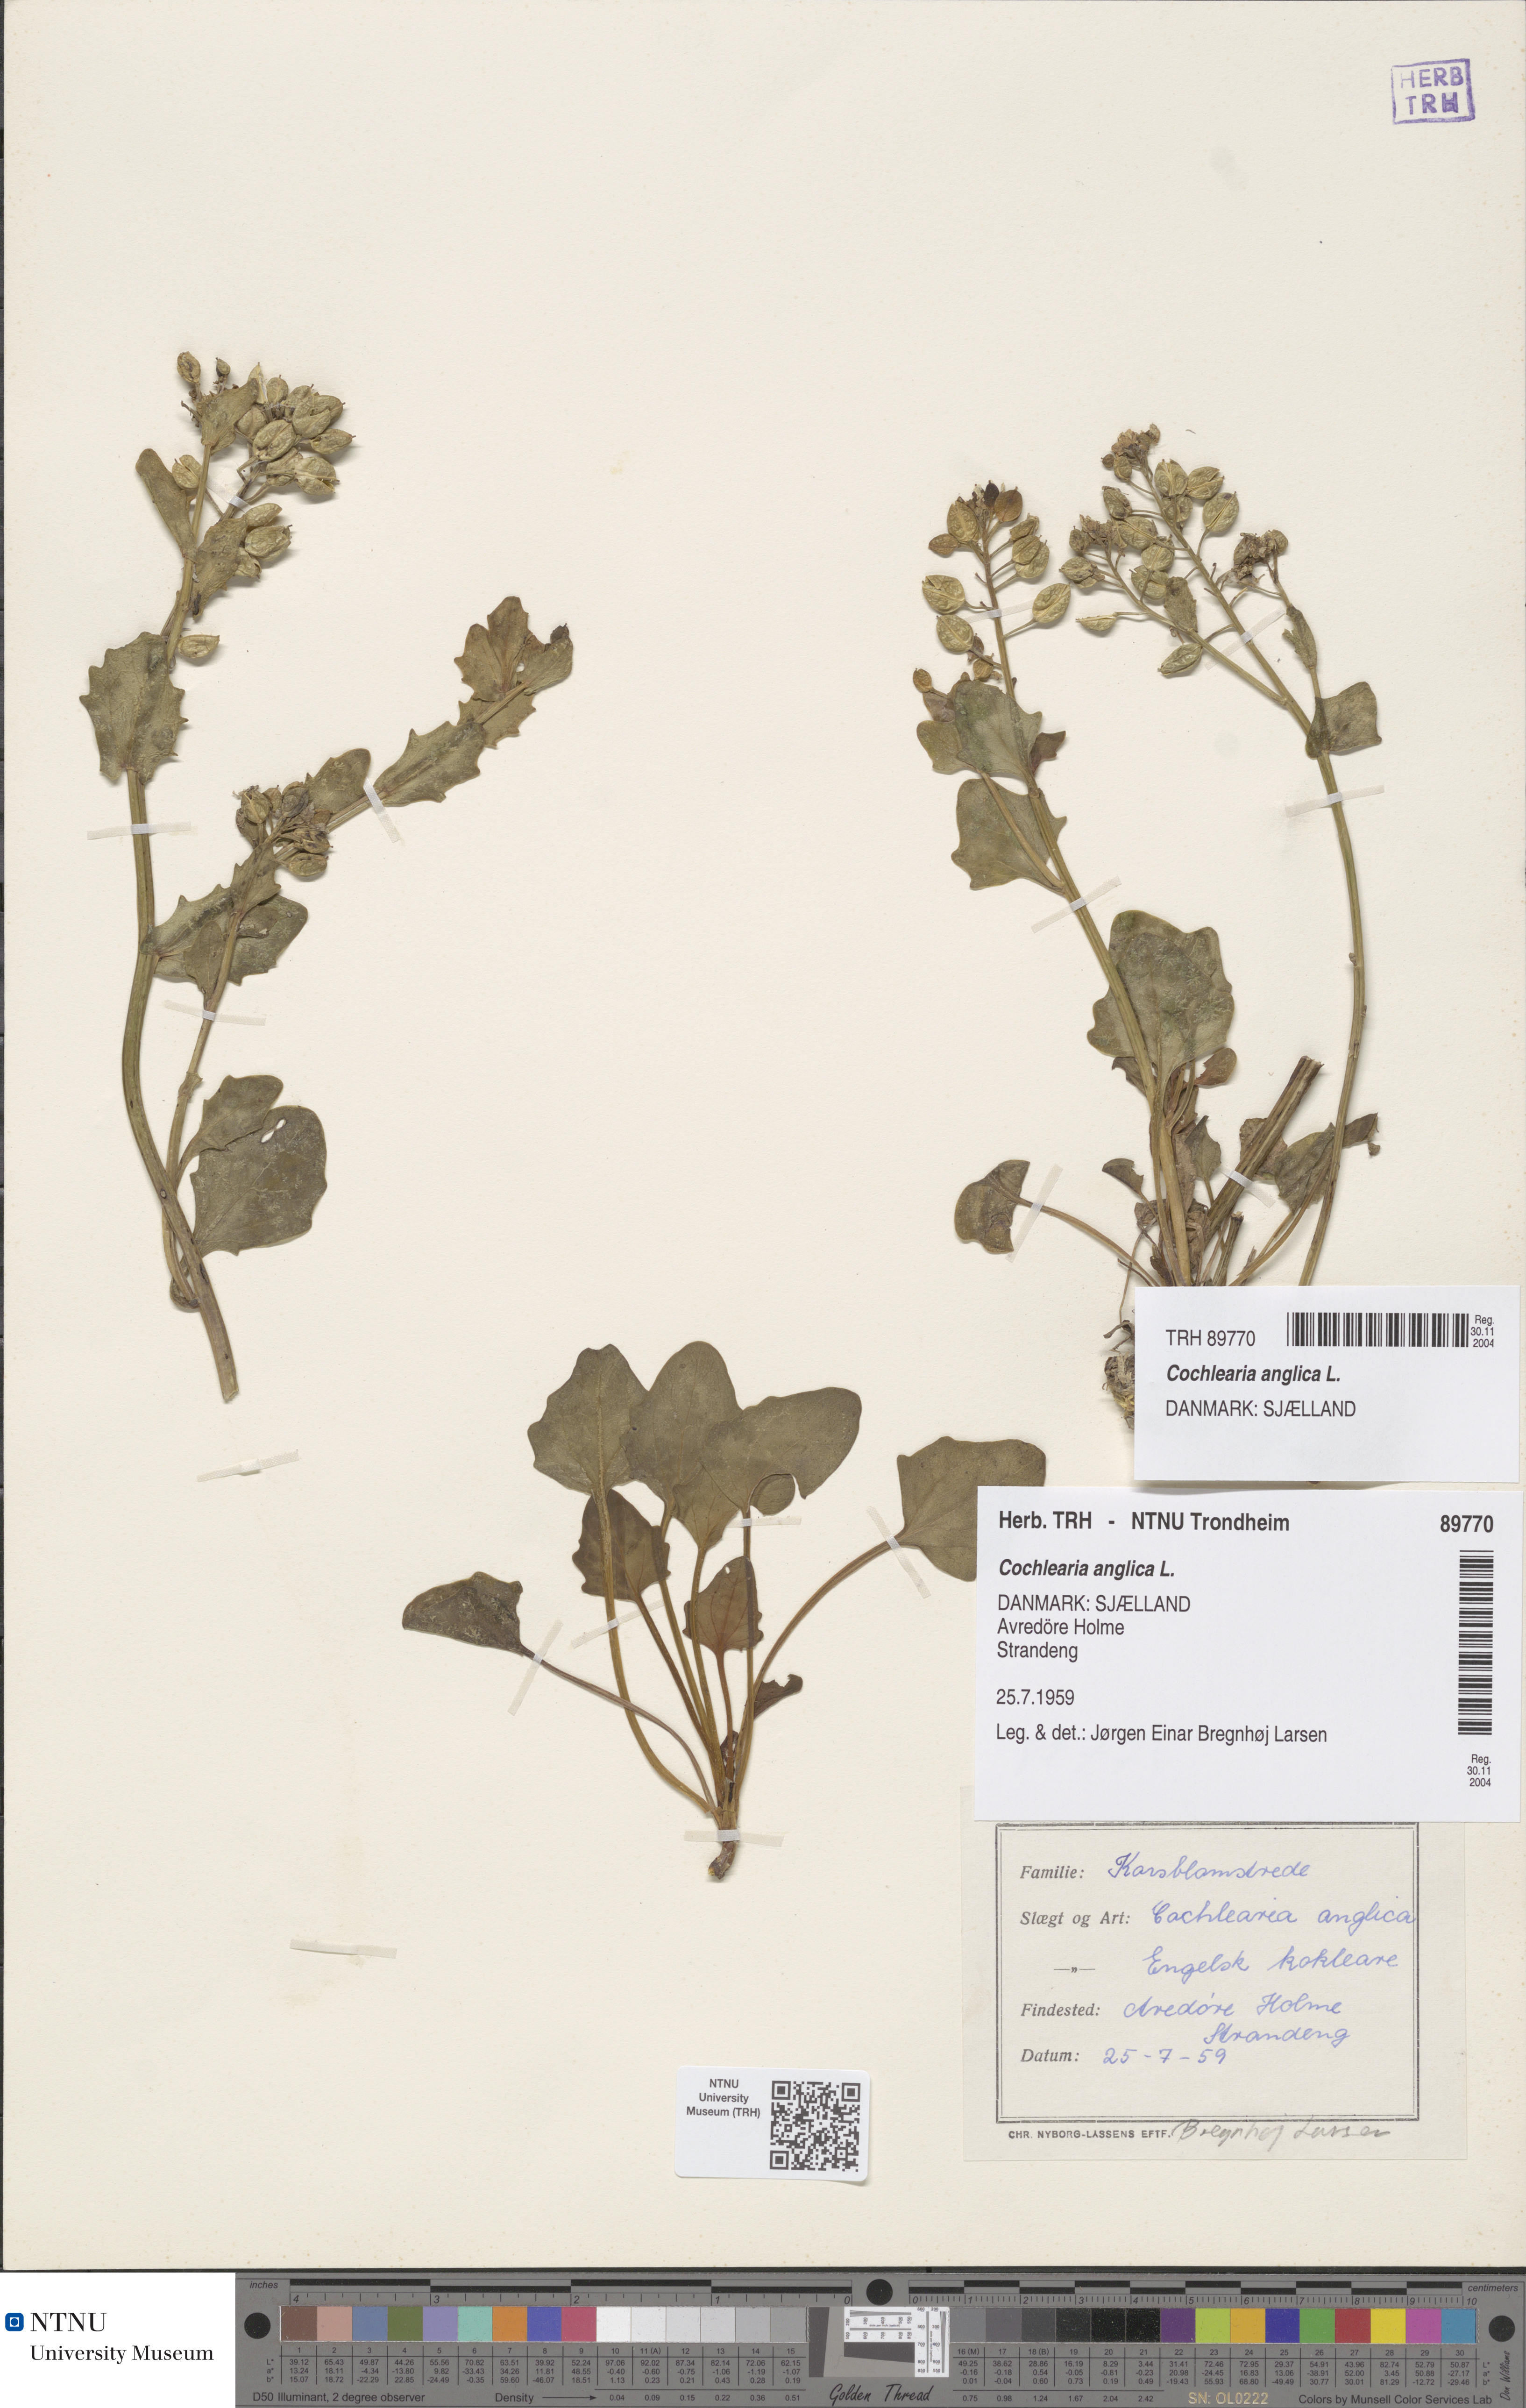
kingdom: Plantae
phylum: Tracheophyta
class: Magnoliopsida
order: Brassicales
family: Brassicaceae
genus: Cochlearia
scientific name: Cochlearia anglica
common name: English scurvygrass
